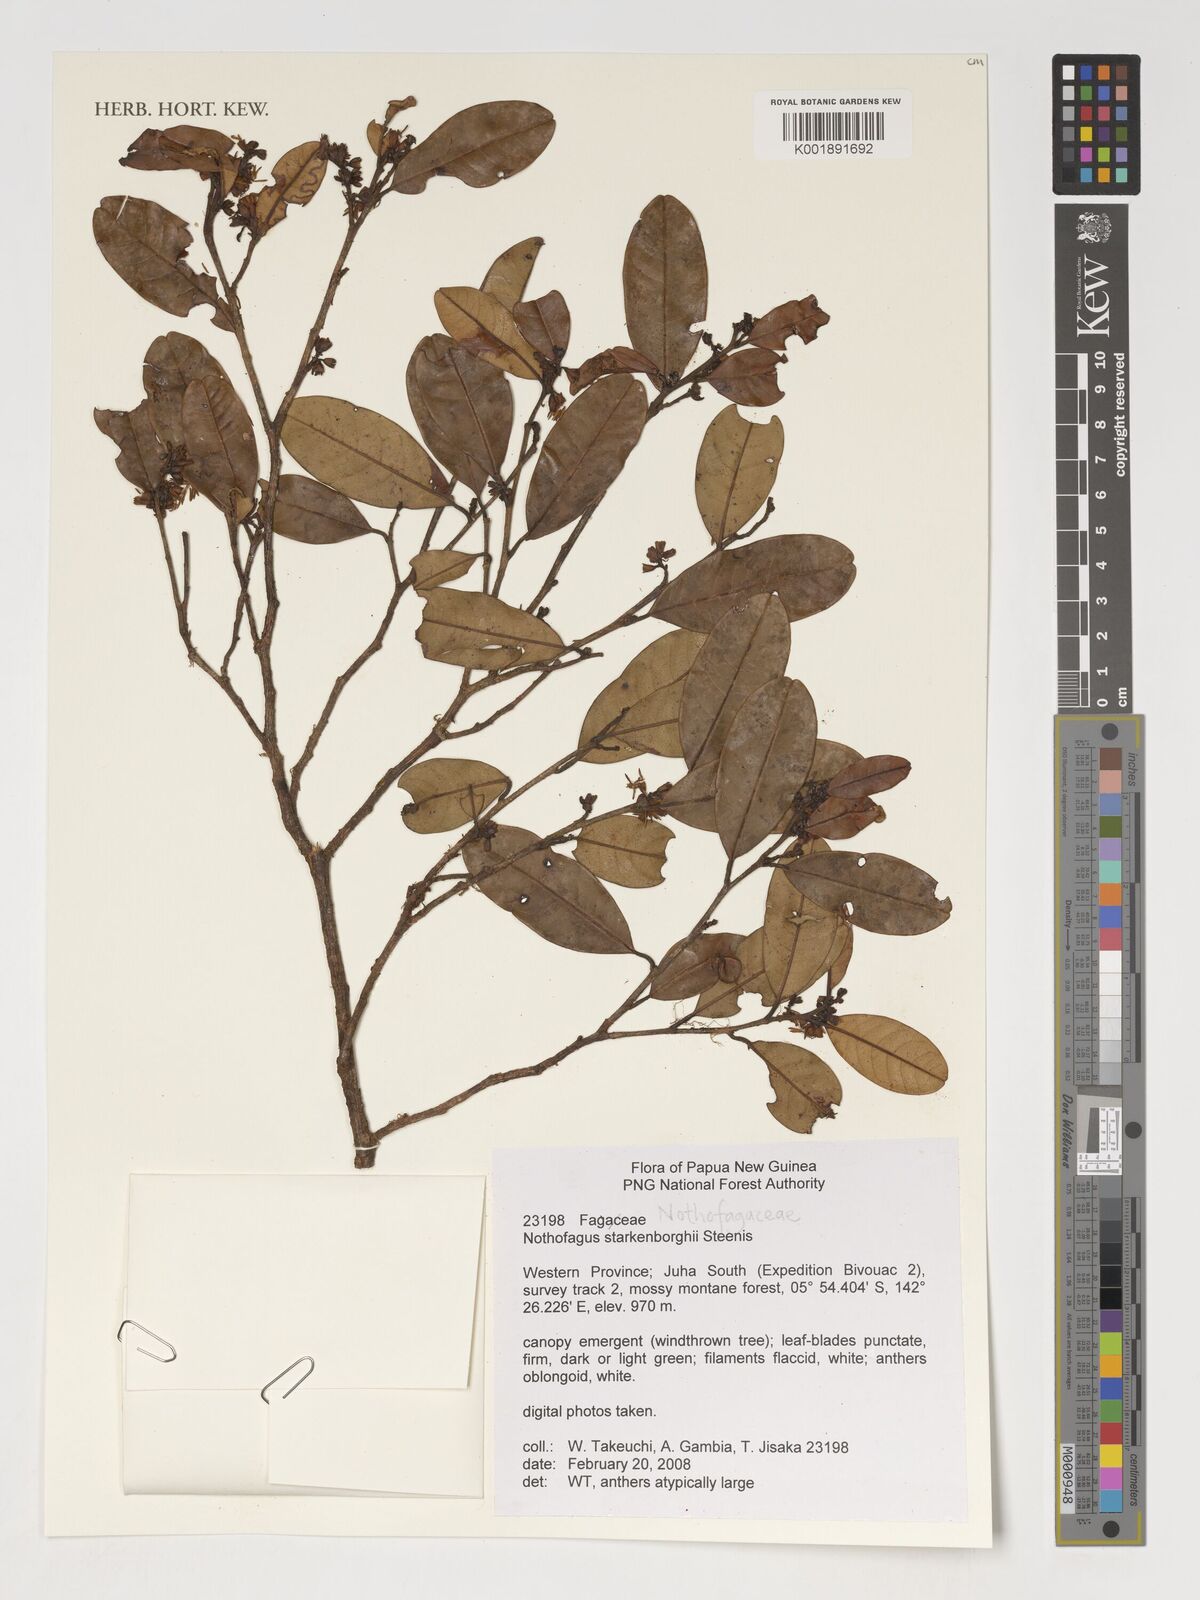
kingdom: Plantae
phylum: Tracheophyta
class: Magnoliopsida
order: Fagales
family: Nothofagaceae
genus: Nothofagus
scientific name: Nothofagus starkenborghiorum
